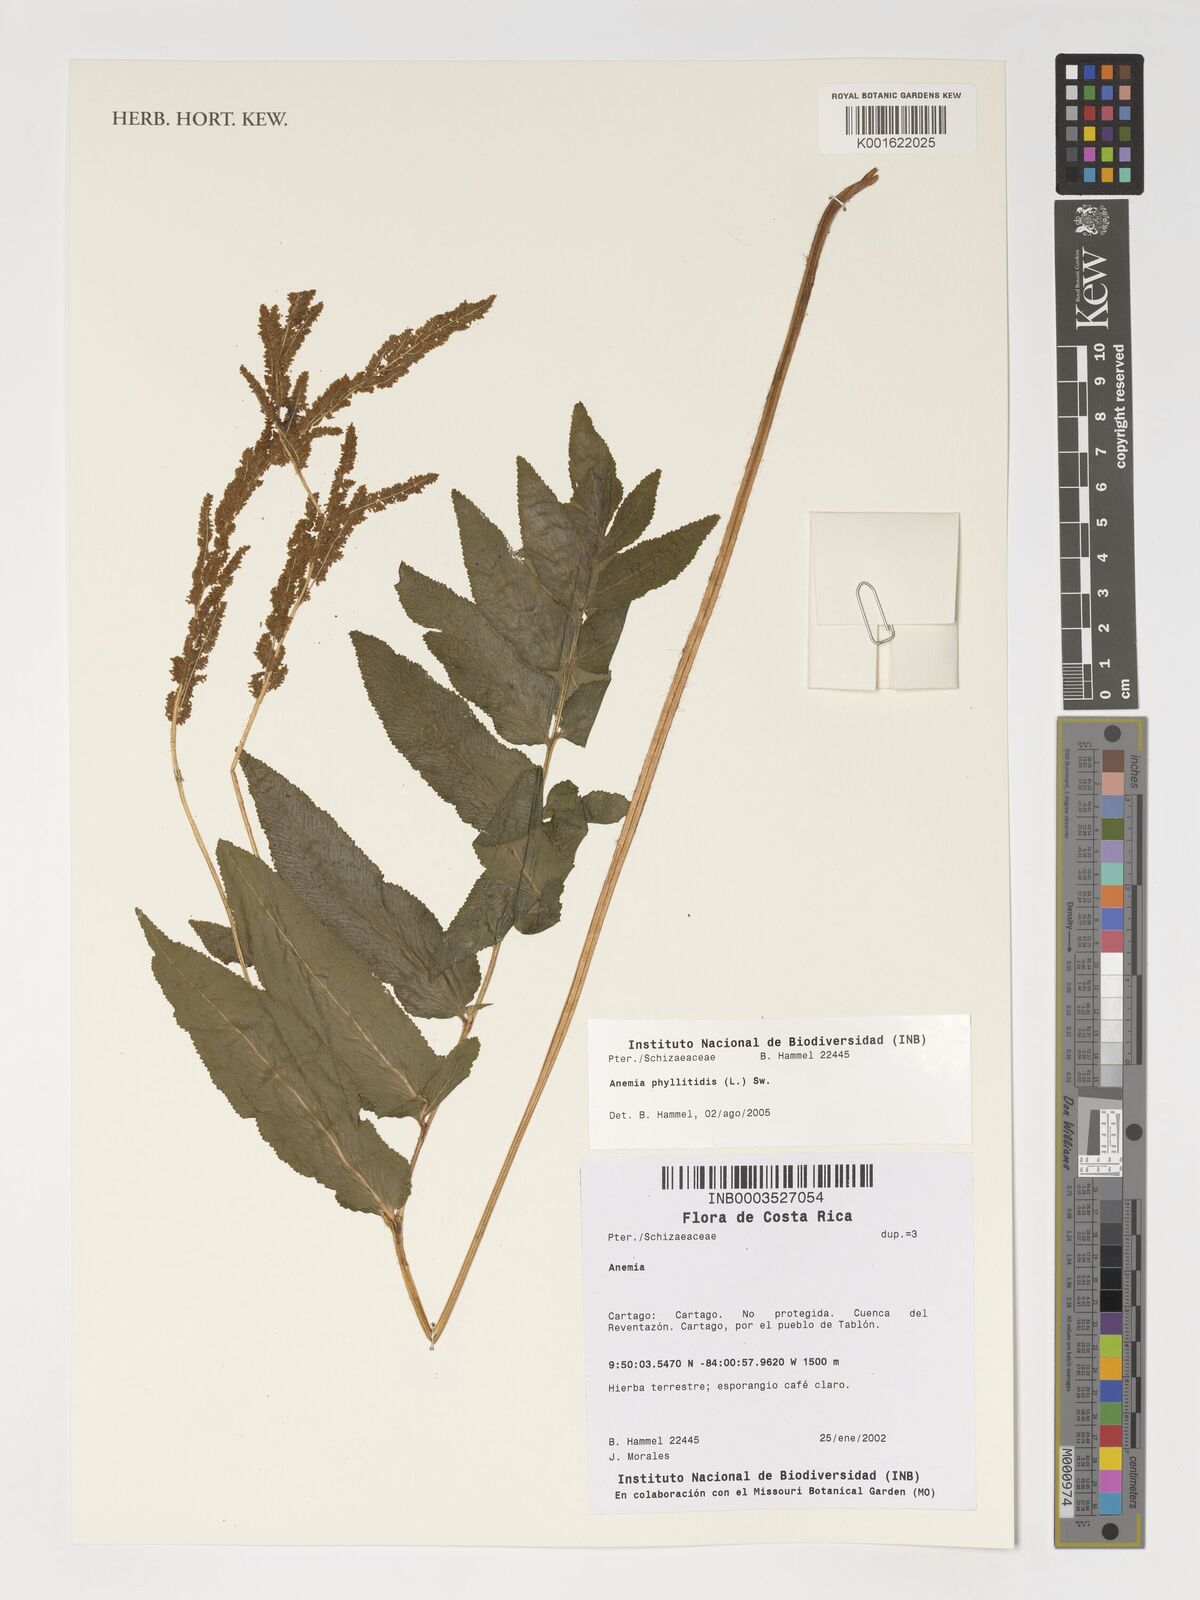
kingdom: Plantae
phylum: Tracheophyta
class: Polypodiopsida
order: Schizaeales
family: Anemiaceae
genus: Anemia
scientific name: Anemia phyllitidis
